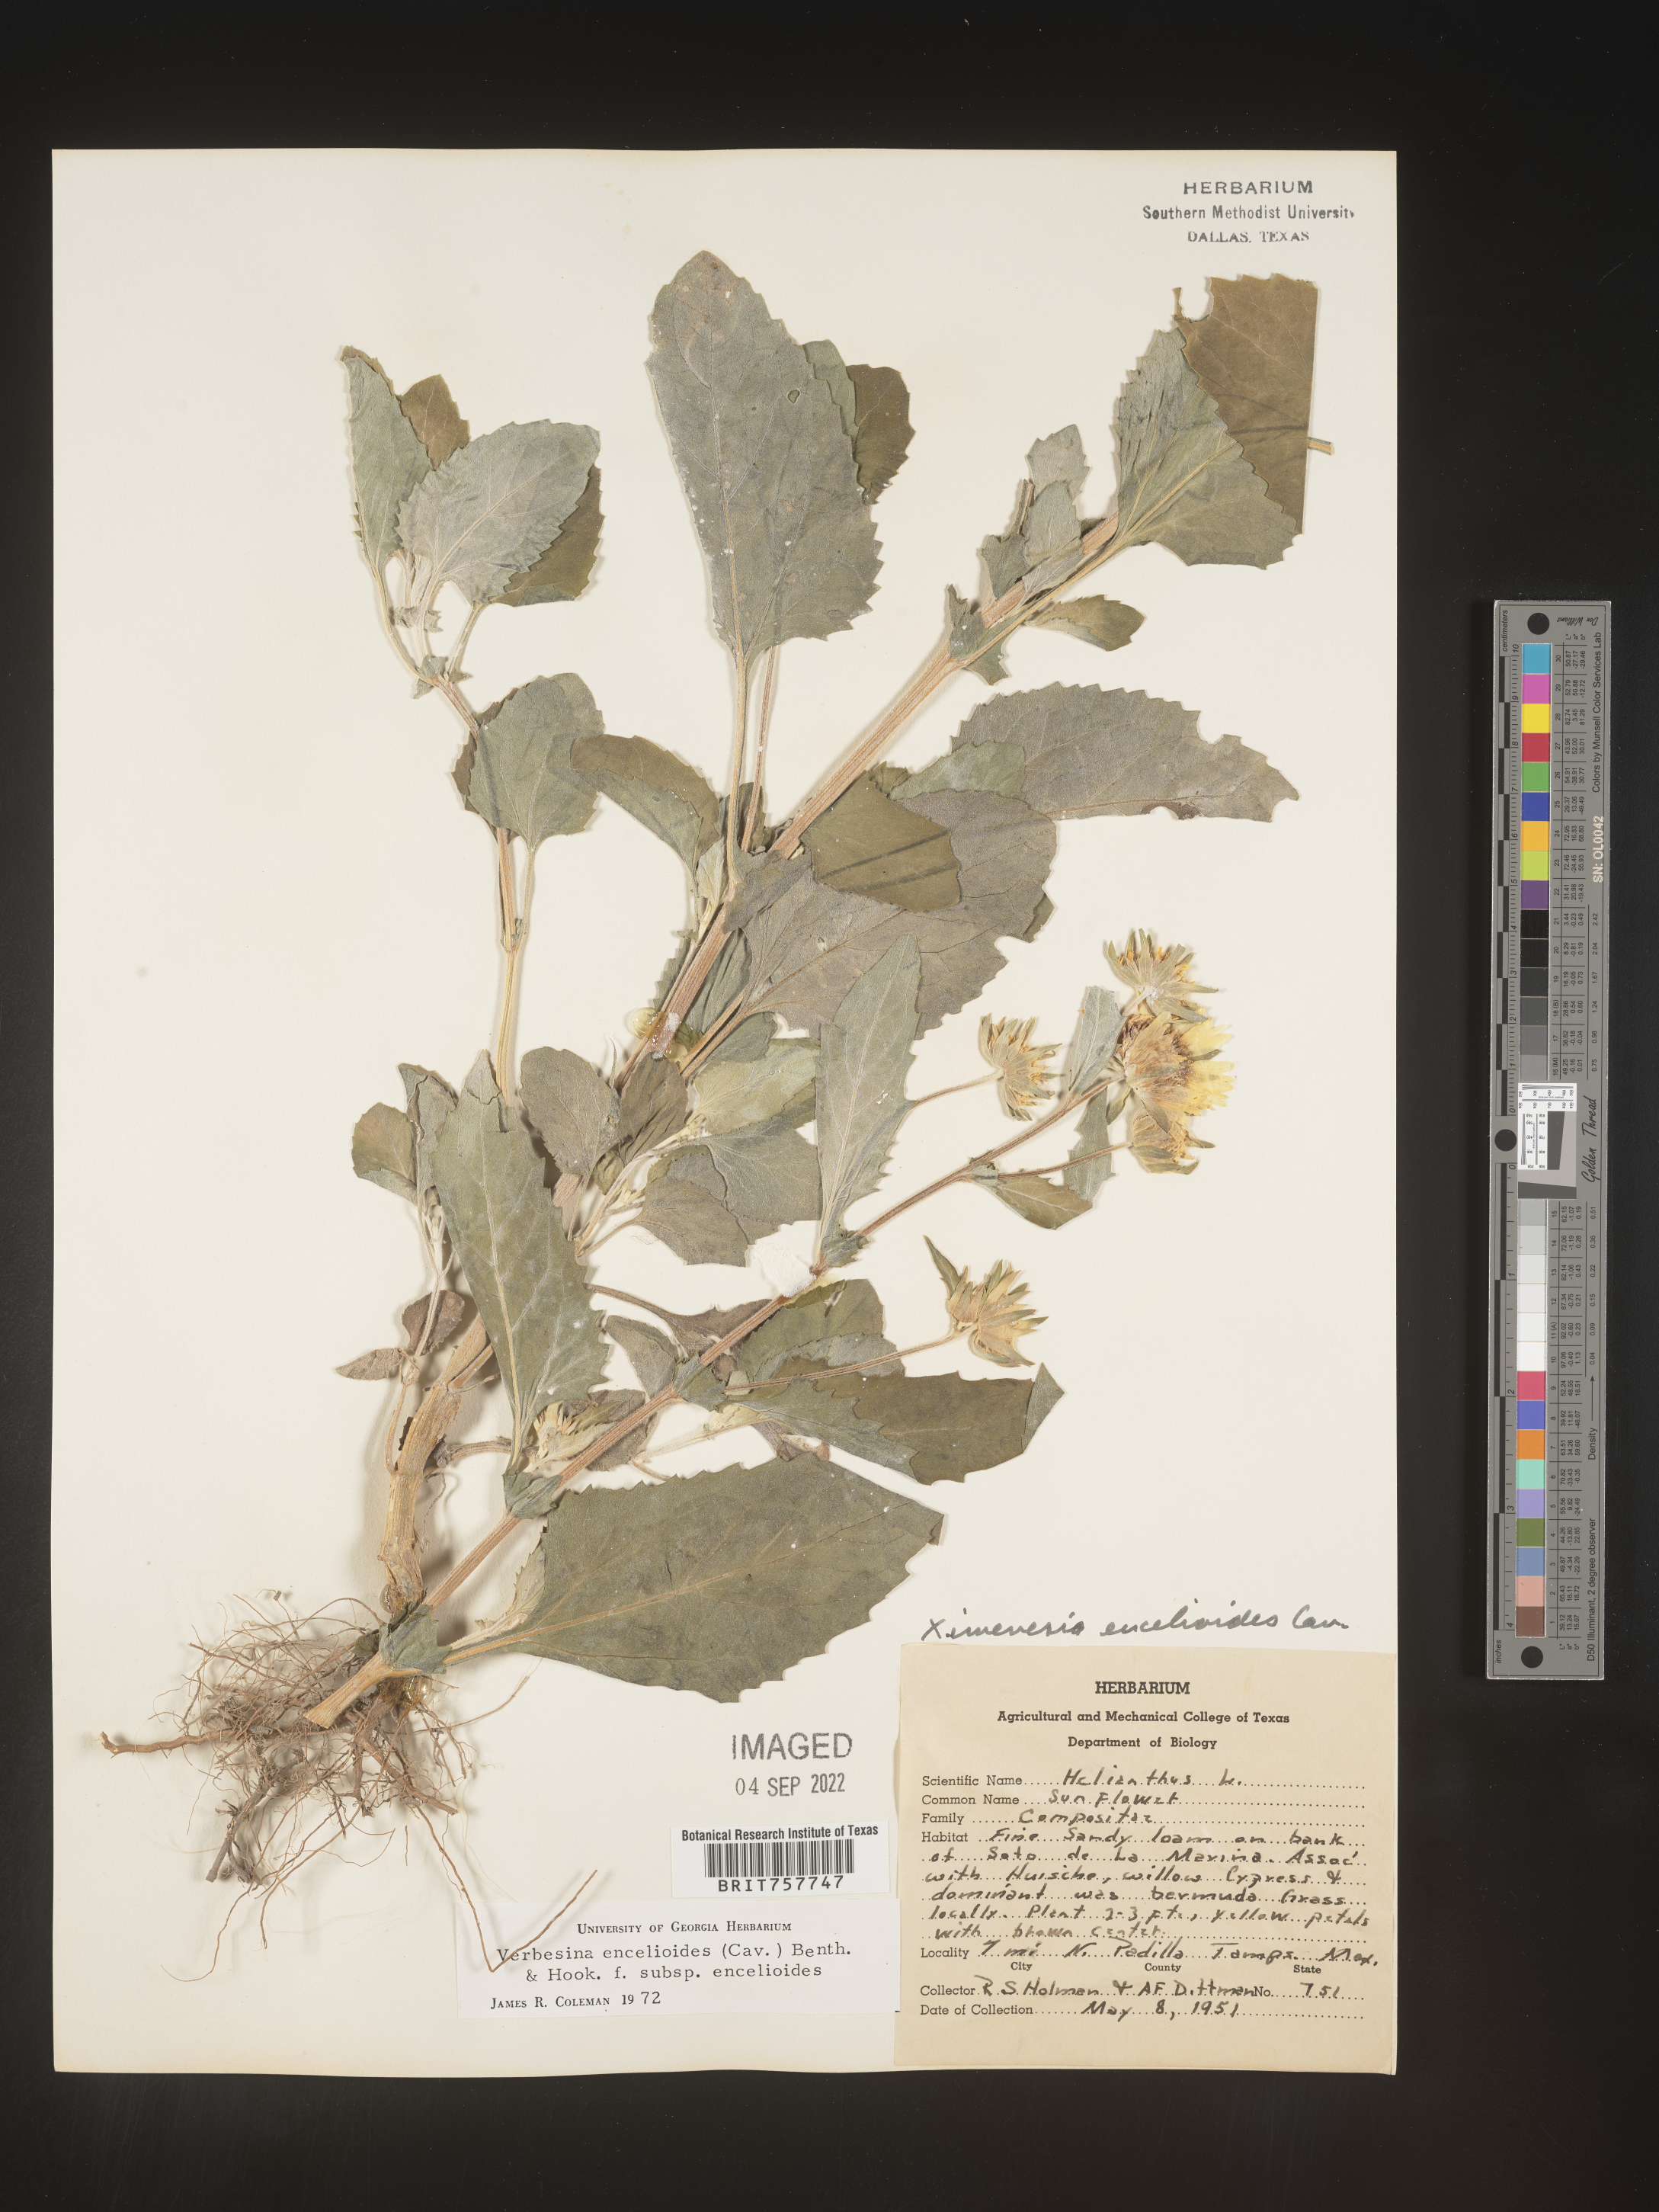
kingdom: Plantae
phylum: Tracheophyta
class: Magnoliopsida
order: Asterales
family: Asteraceae
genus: Verbesina
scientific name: Verbesina
